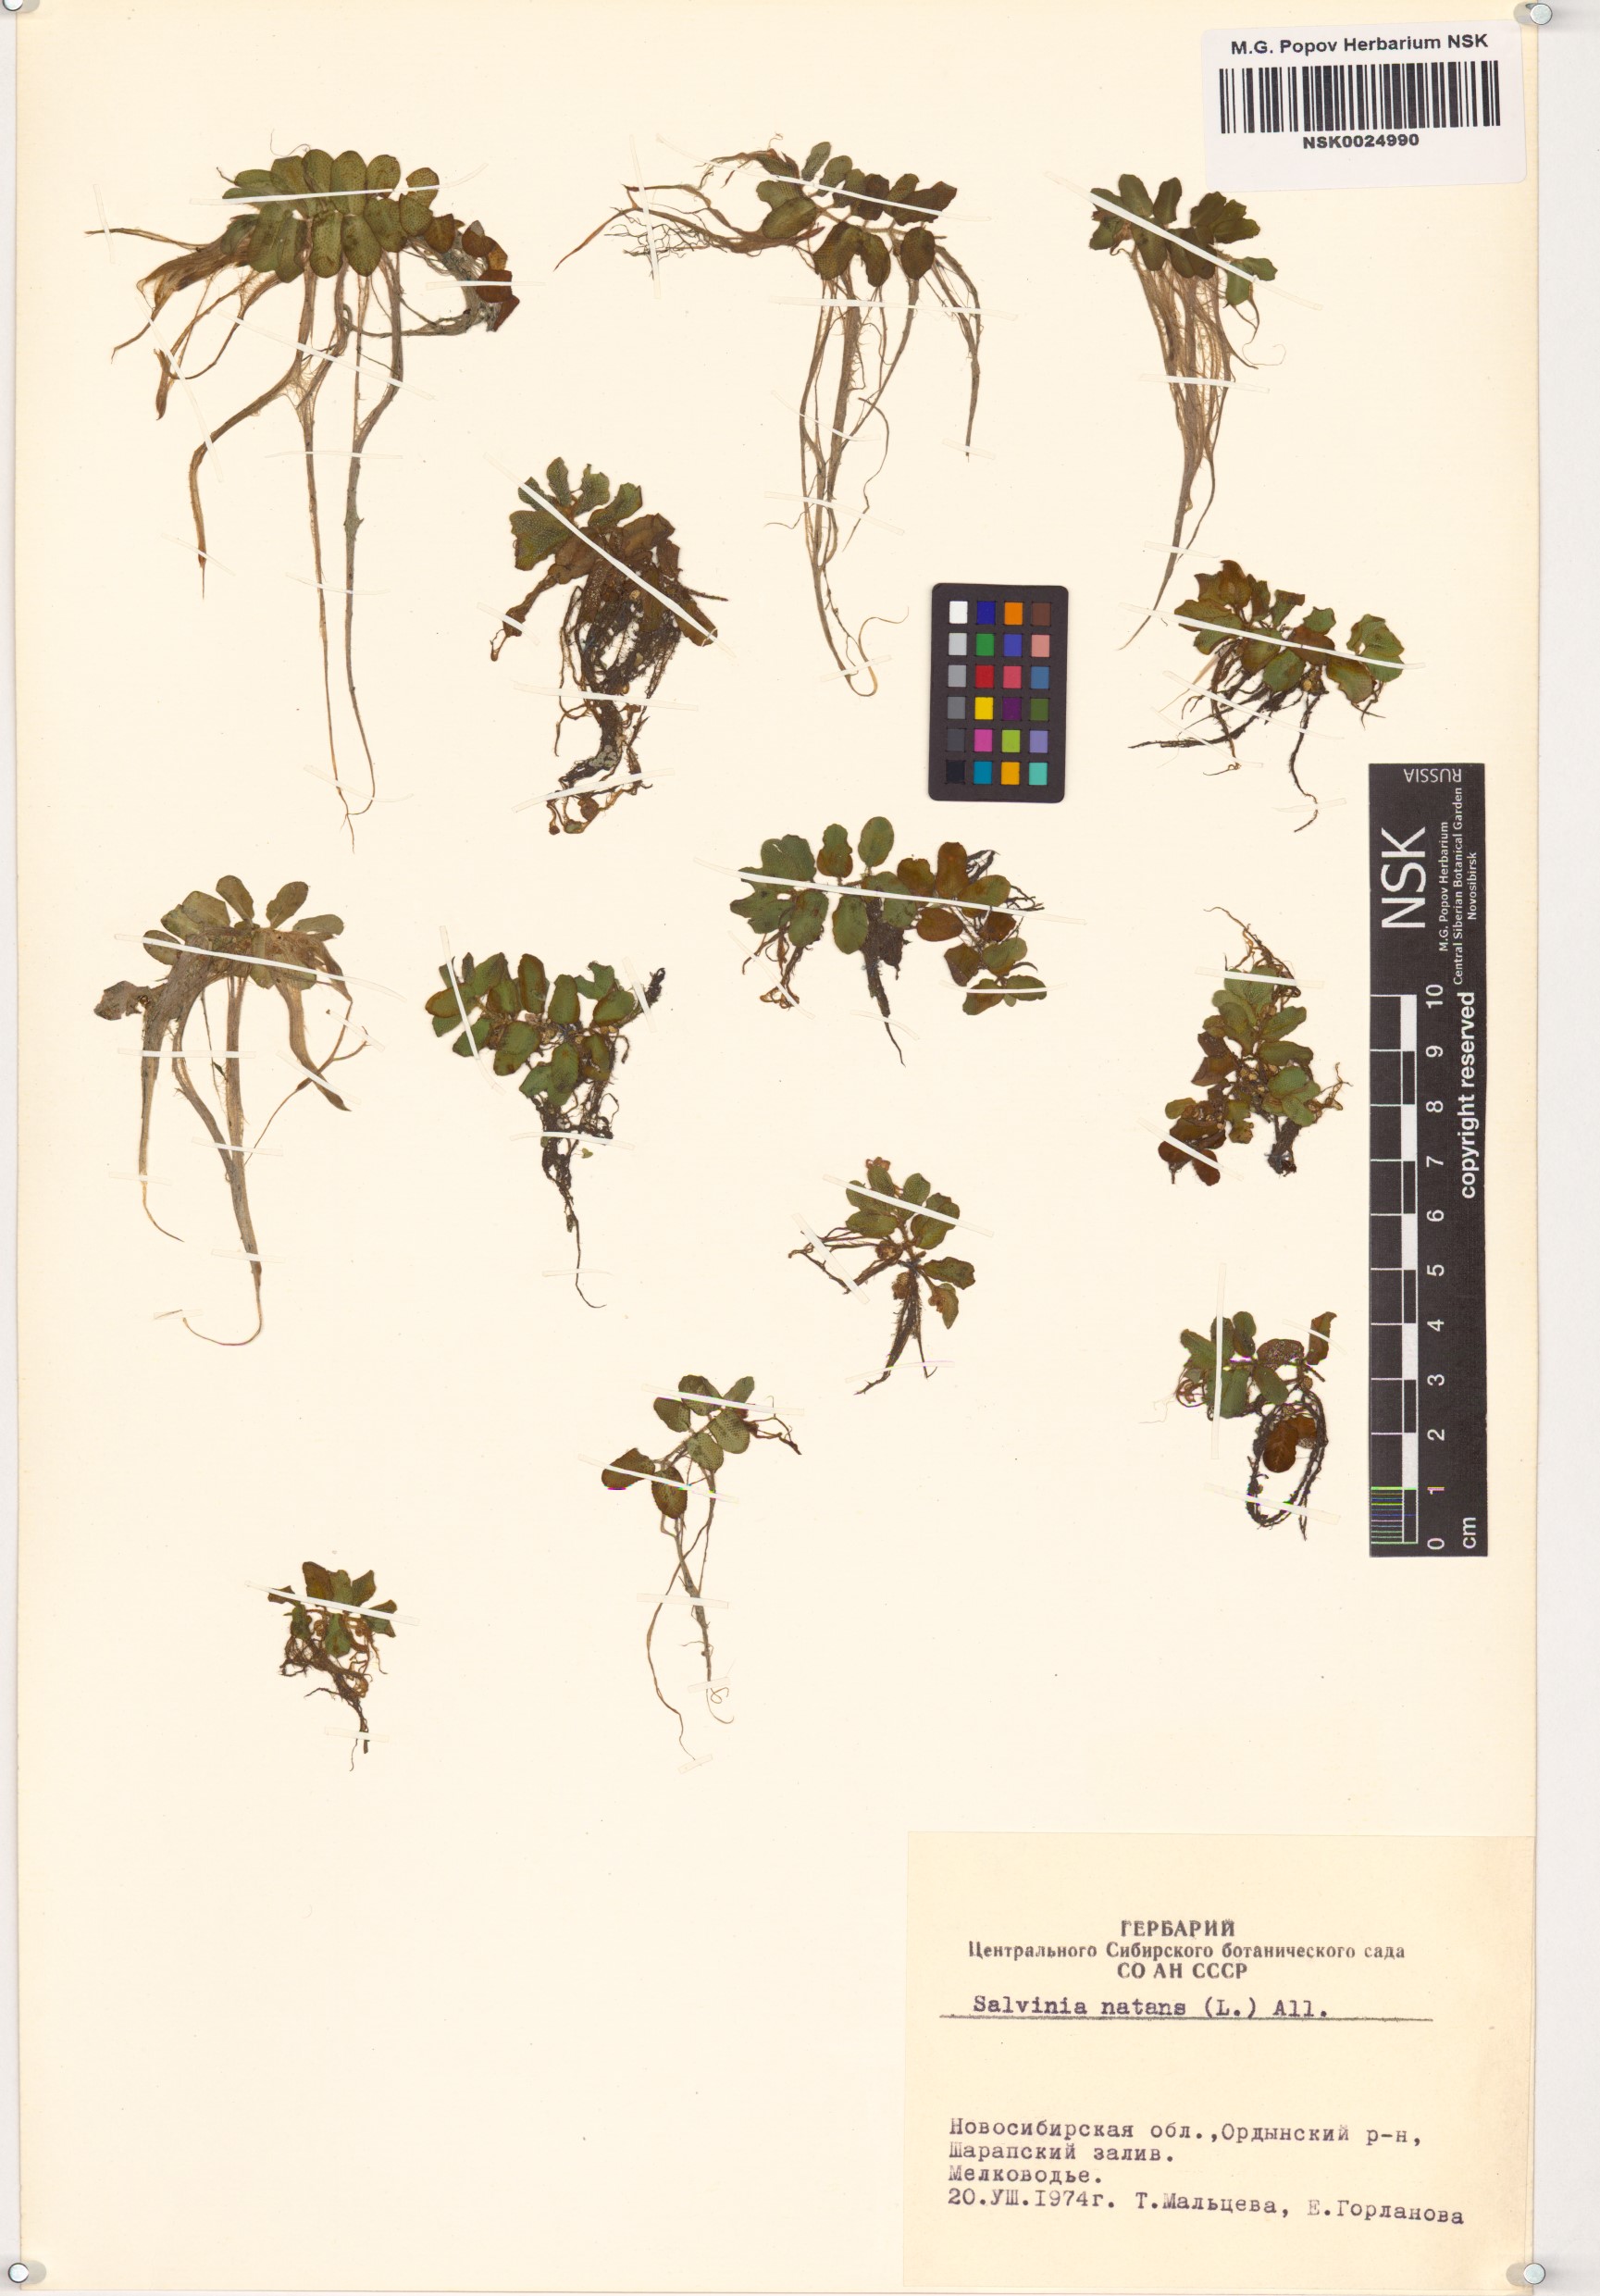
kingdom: Plantae
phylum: Tracheophyta
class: Polypodiopsida
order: Salviniales
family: Salviniaceae
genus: Salvinia
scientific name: Salvinia natans
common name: Floating fern
